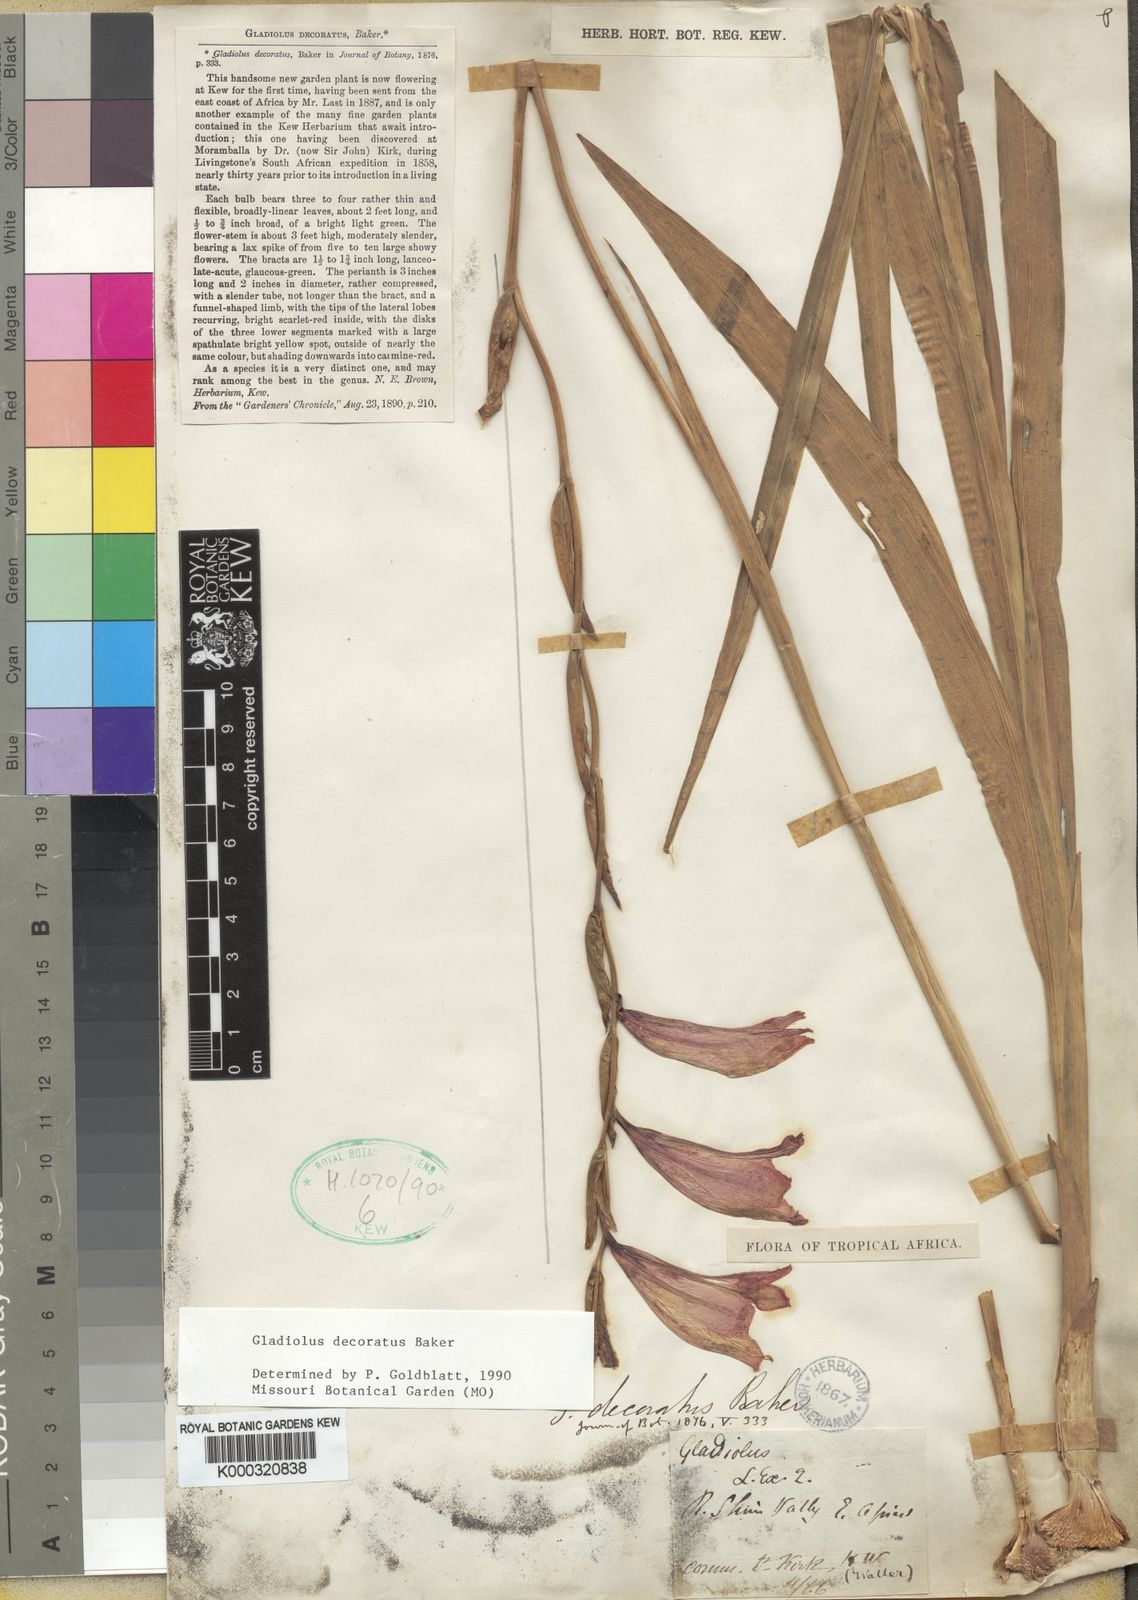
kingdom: Plantae
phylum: Tracheophyta
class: Liliopsida
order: Asparagales
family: Iridaceae
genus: Gladiolus
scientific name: Gladiolus decoratus
